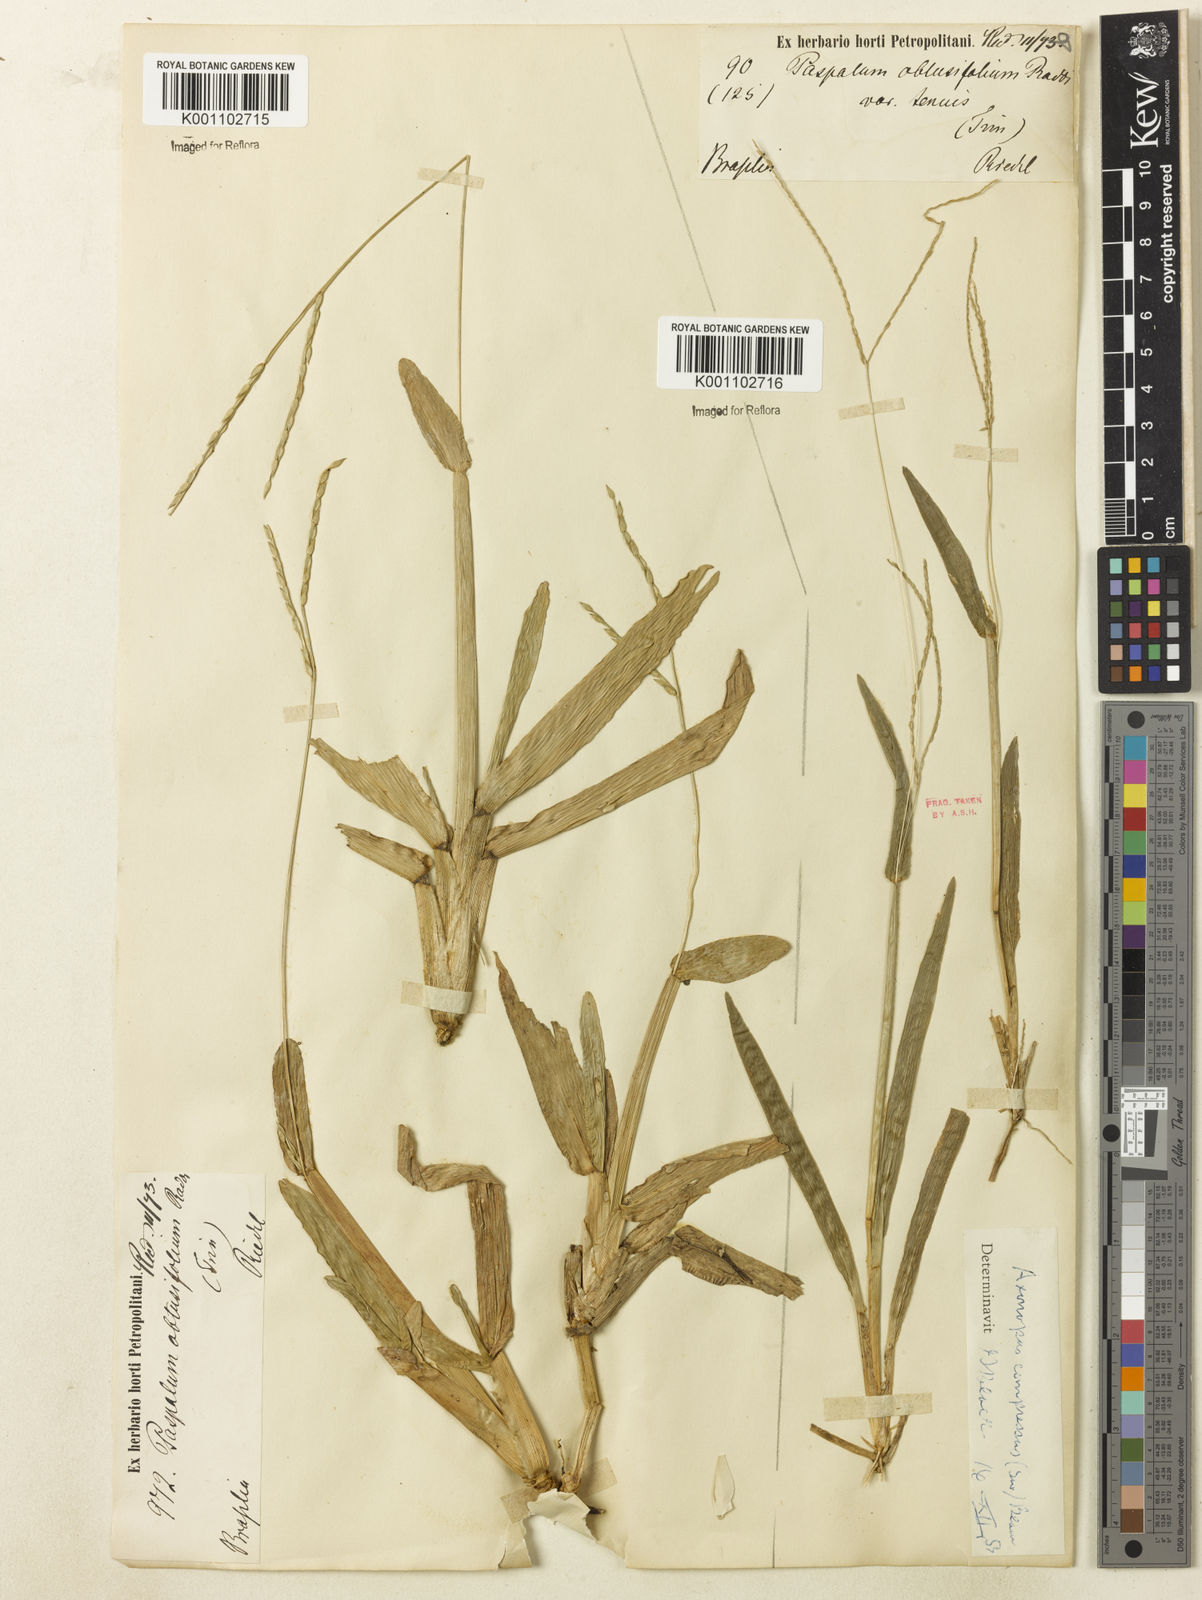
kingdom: Plantae
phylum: Tracheophyta
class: Liliopsida
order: Poales
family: Poaceae
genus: Axonopus
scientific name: Axonopus furcatus
